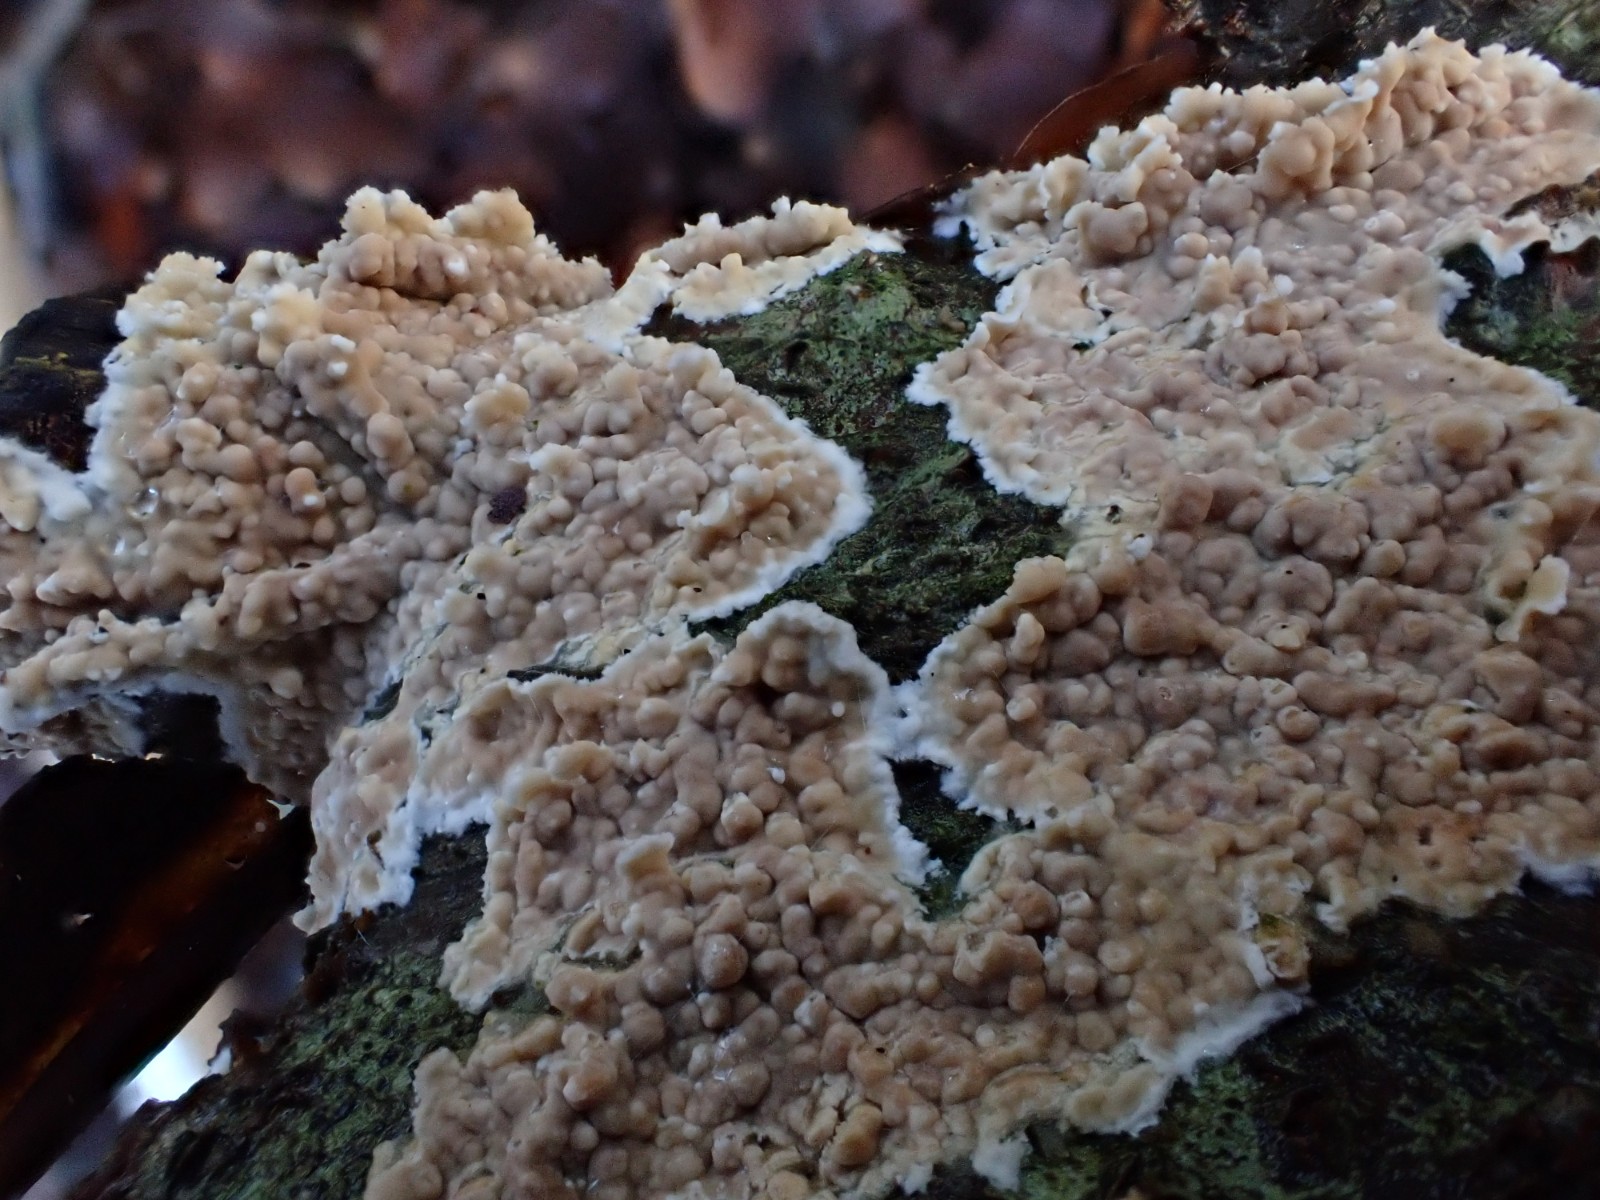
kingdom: Fungi
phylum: Basidiomycota
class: Agaricomycetes
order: Agaricales
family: Physalacriaceae
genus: Cylindrobasidium
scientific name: Cylindrobasidium evolvens
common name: sprækkehinde
